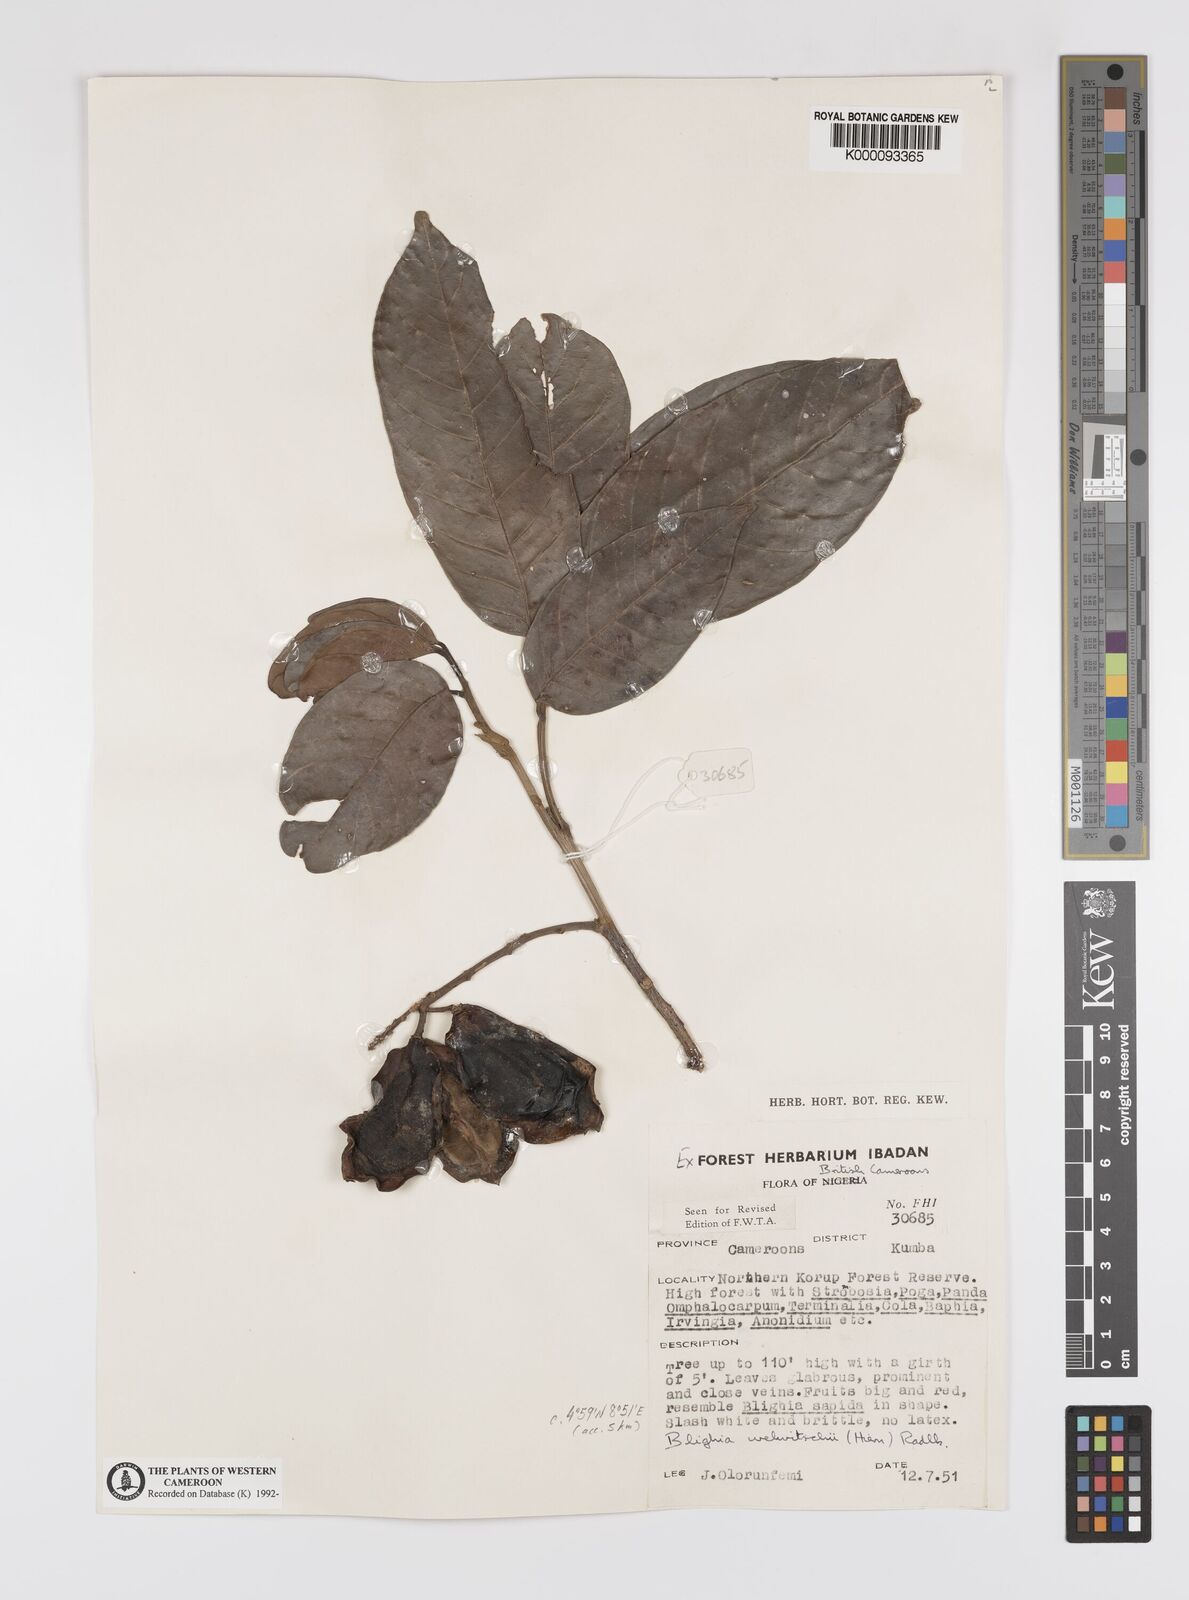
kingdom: Plantae
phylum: Tracheophyta
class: Magnoliopsida
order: Sapindales
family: Sapindaceae
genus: Blighia
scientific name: Blighia welwitschii
